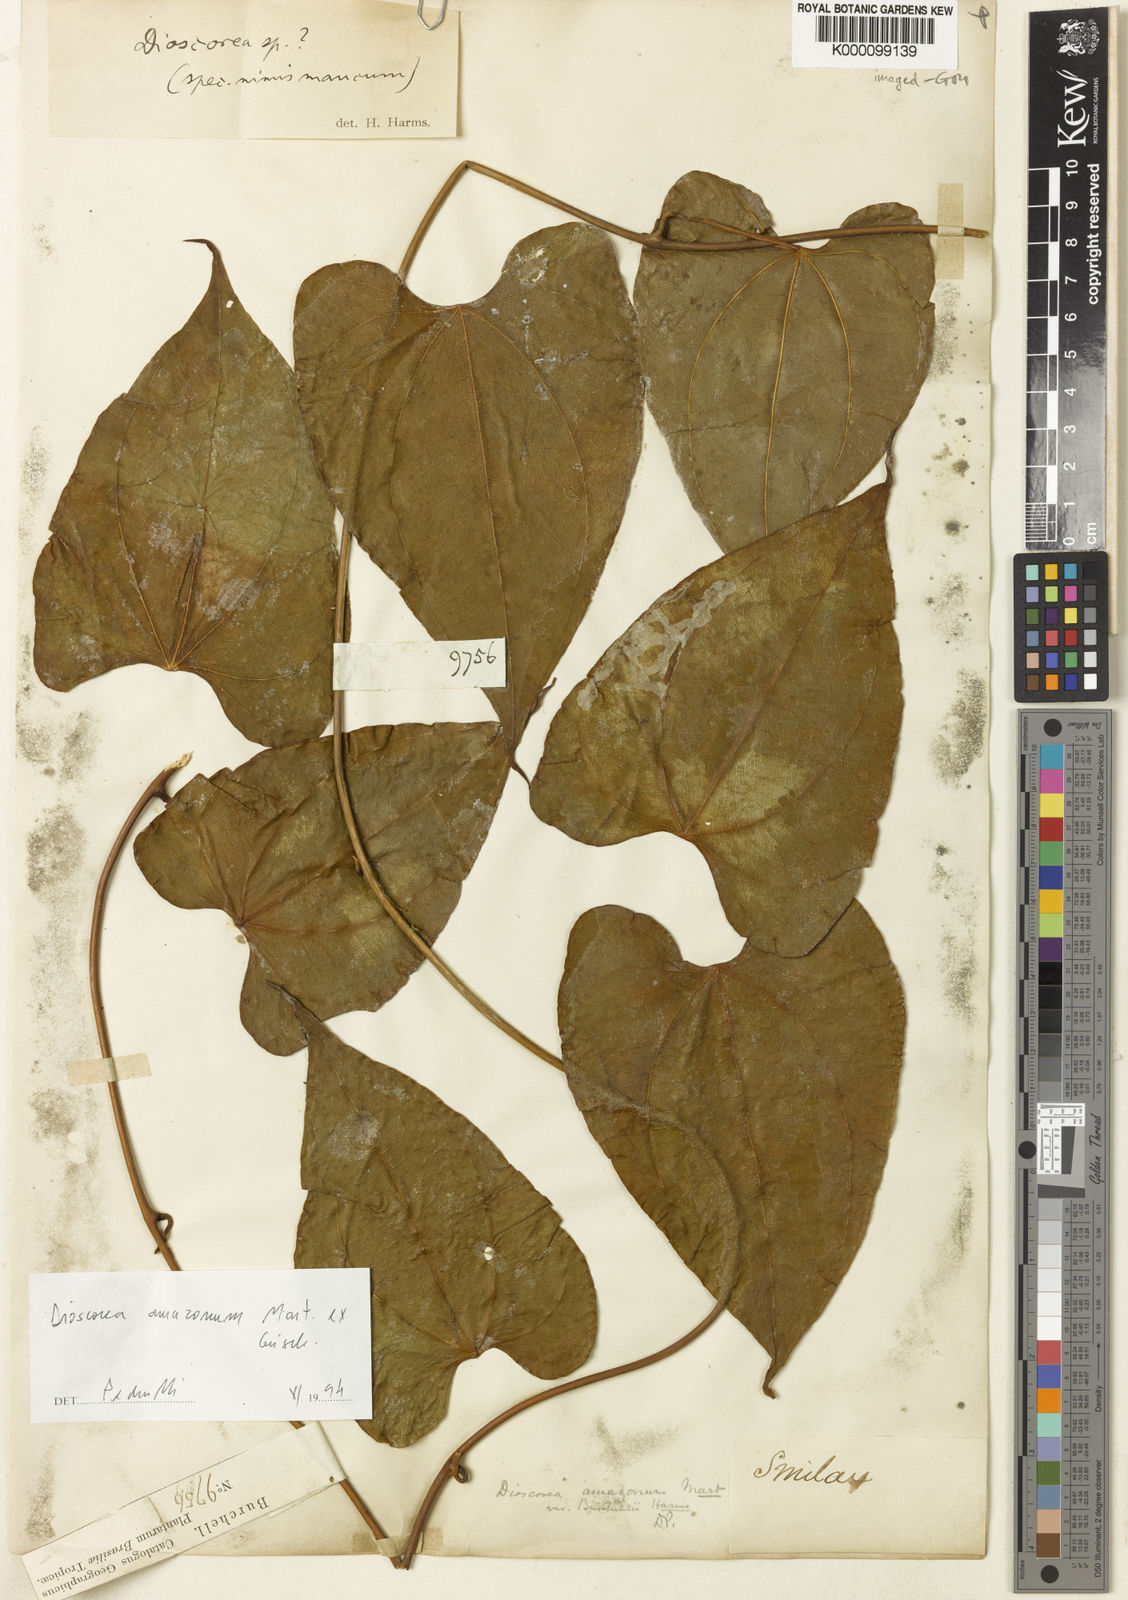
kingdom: Plantae
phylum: Tracheophyta
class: Liliopsida
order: Dioscoreales
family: Dioscoreaceae
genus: Dioscorea
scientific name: Dioscorea amazonum
